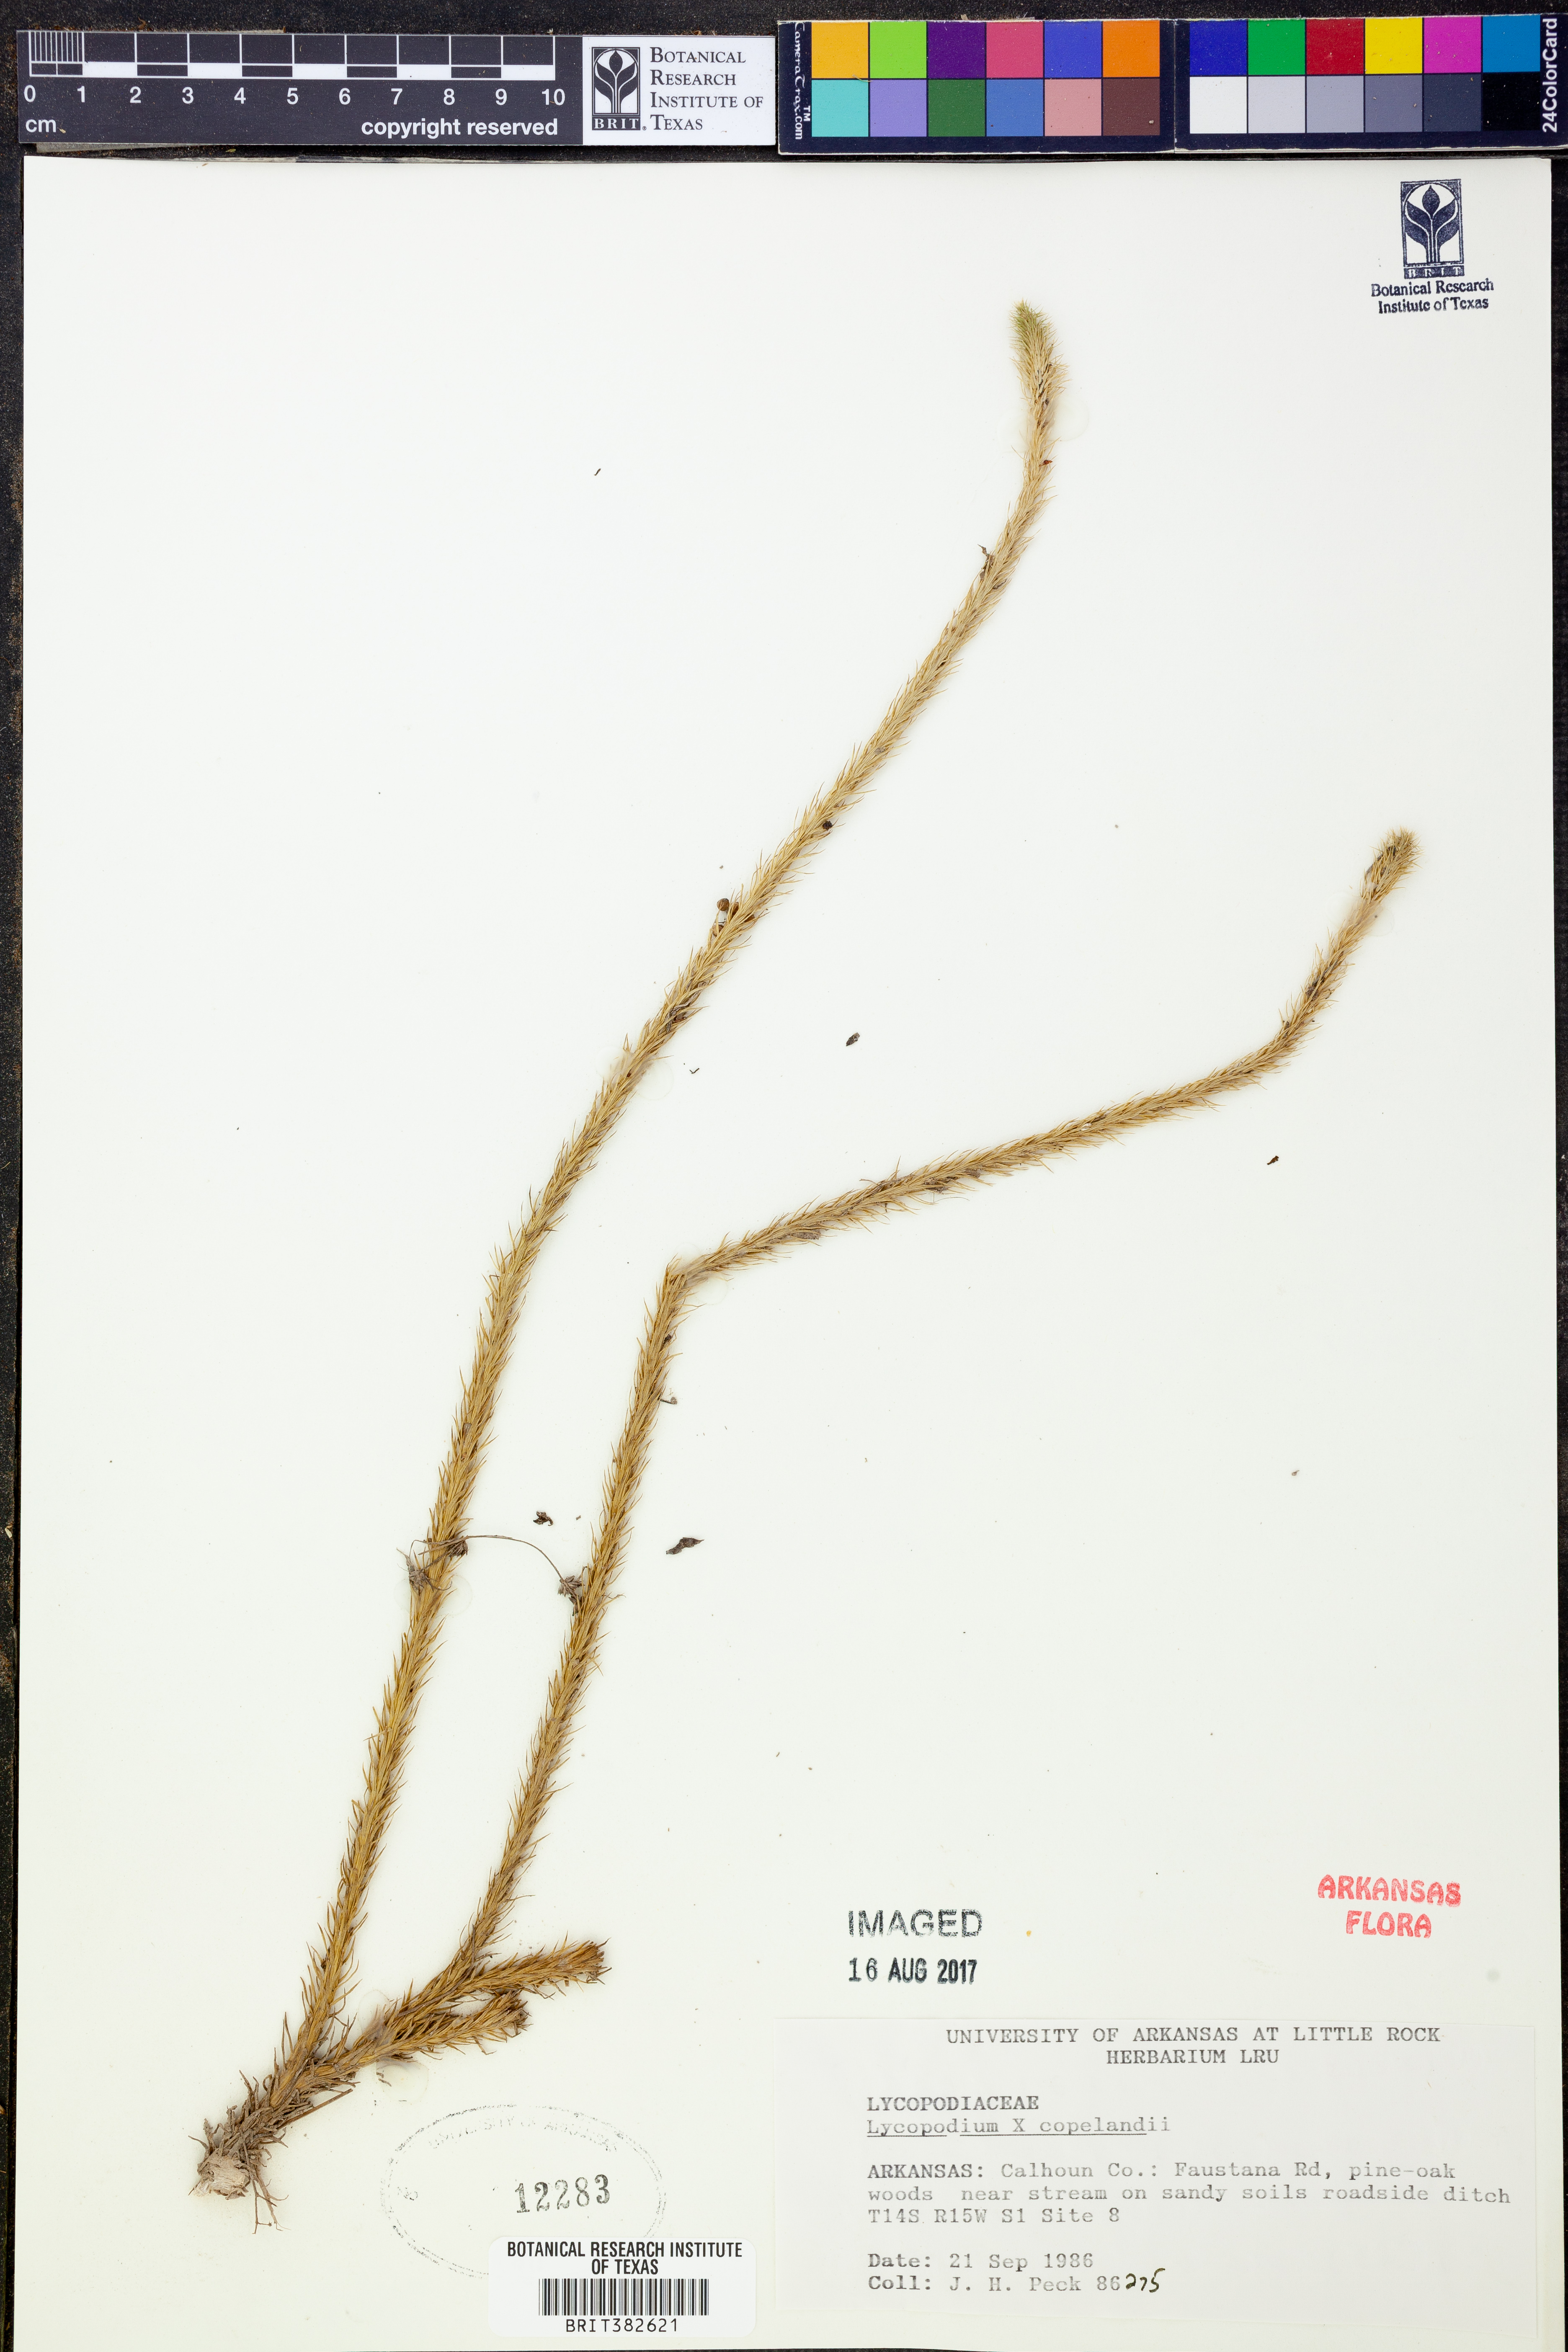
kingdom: Plantae
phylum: Tracheophyta
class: Lycopodiopsida
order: Lycopodiales
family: Lycopodiaceae
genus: Lycopodiella
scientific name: Lycopodiella copelandii
